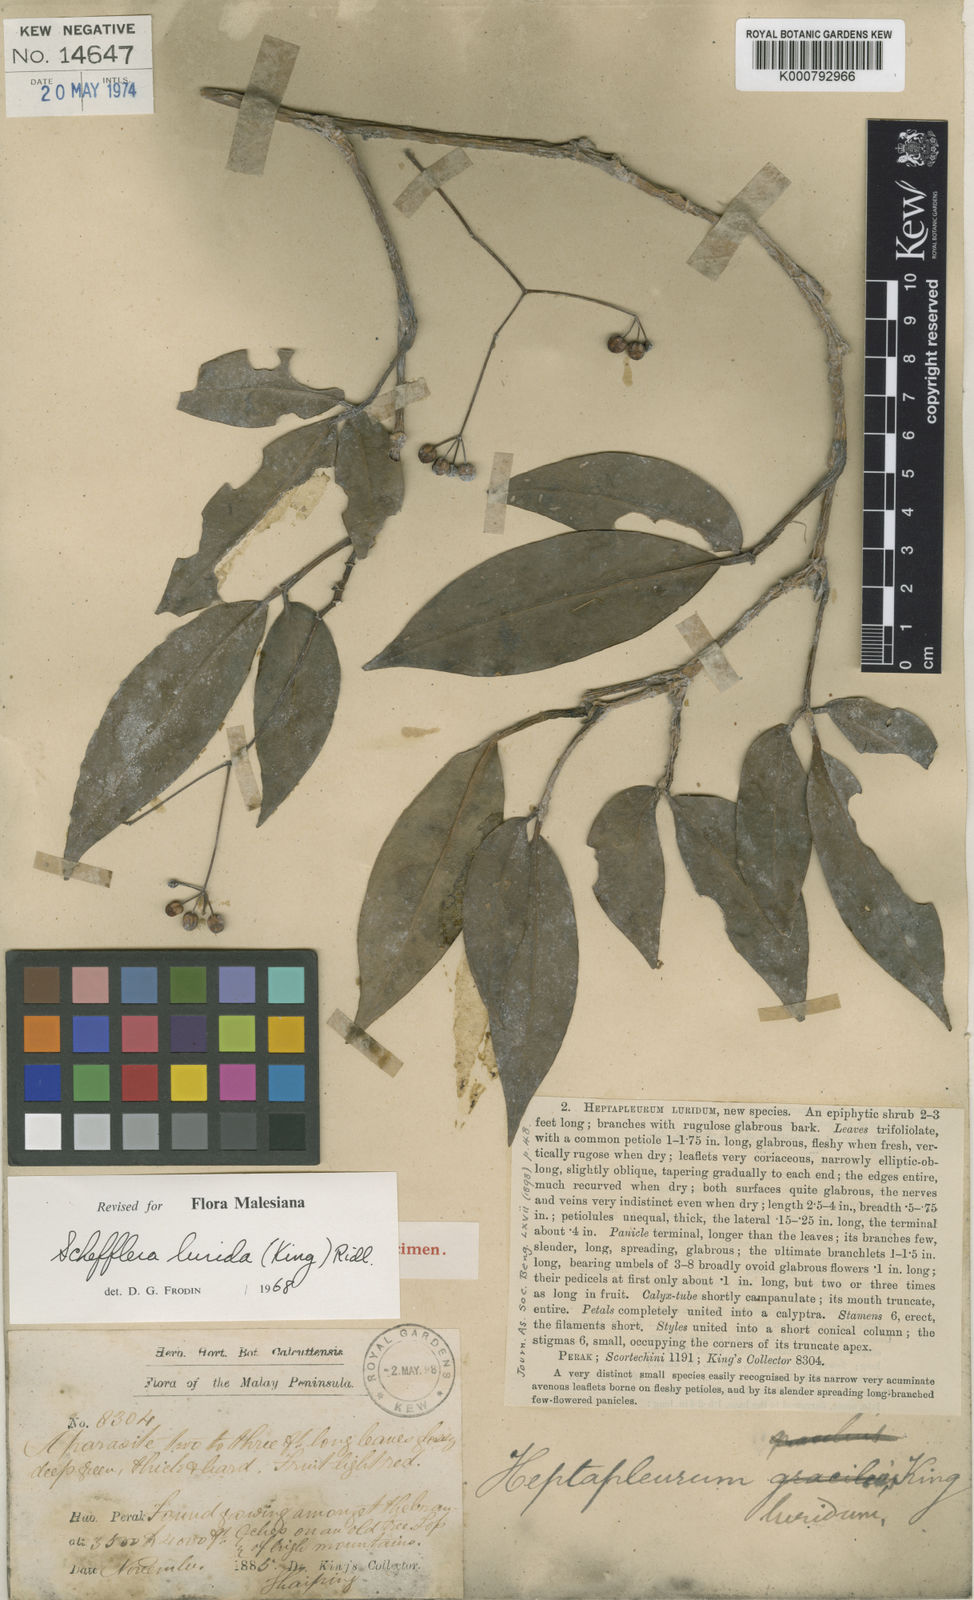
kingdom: Plantae
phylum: Tracheophyta
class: Magnoliopsida
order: Apiales
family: Araliaceae
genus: Heptapleurum
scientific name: Heptapleurum luridum
